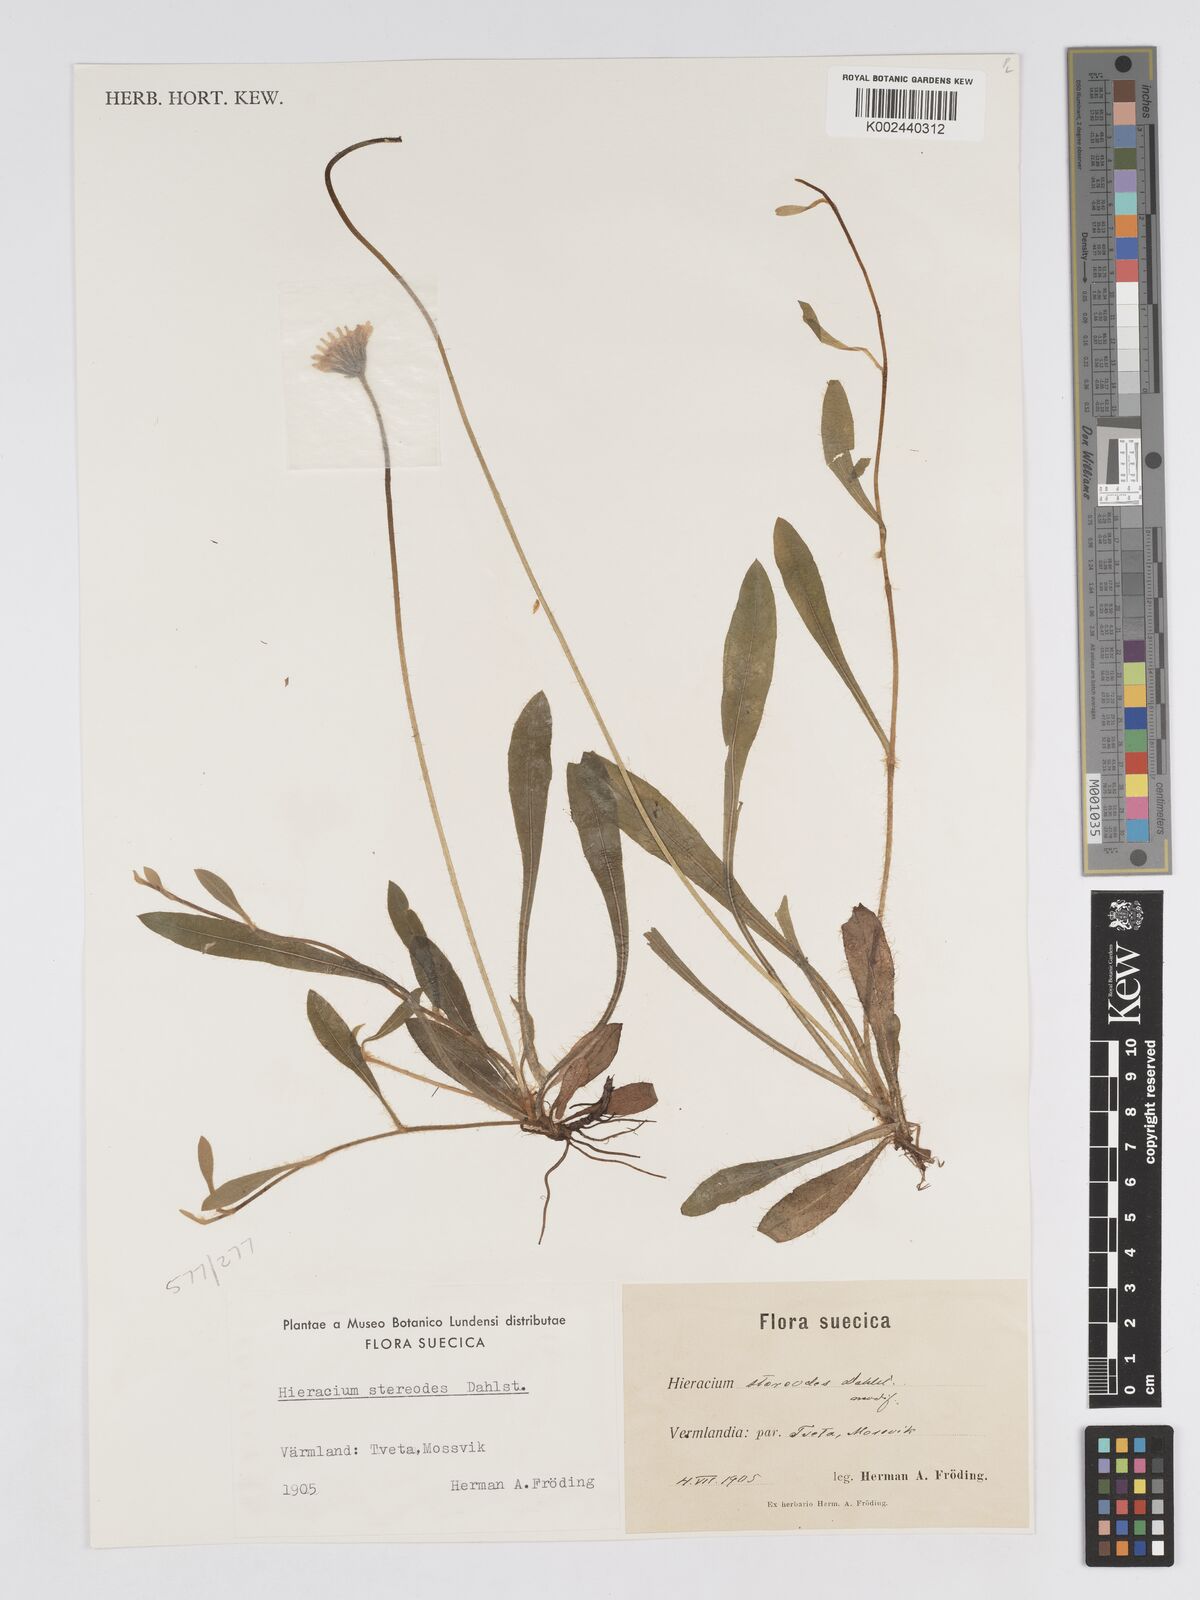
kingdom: Plantae
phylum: Tracheophyta
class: Magnoliopsida
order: Asterales
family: Asteraceae
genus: Pilosella
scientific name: Pilosella officinarum
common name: Mouse-ear hawkweed
